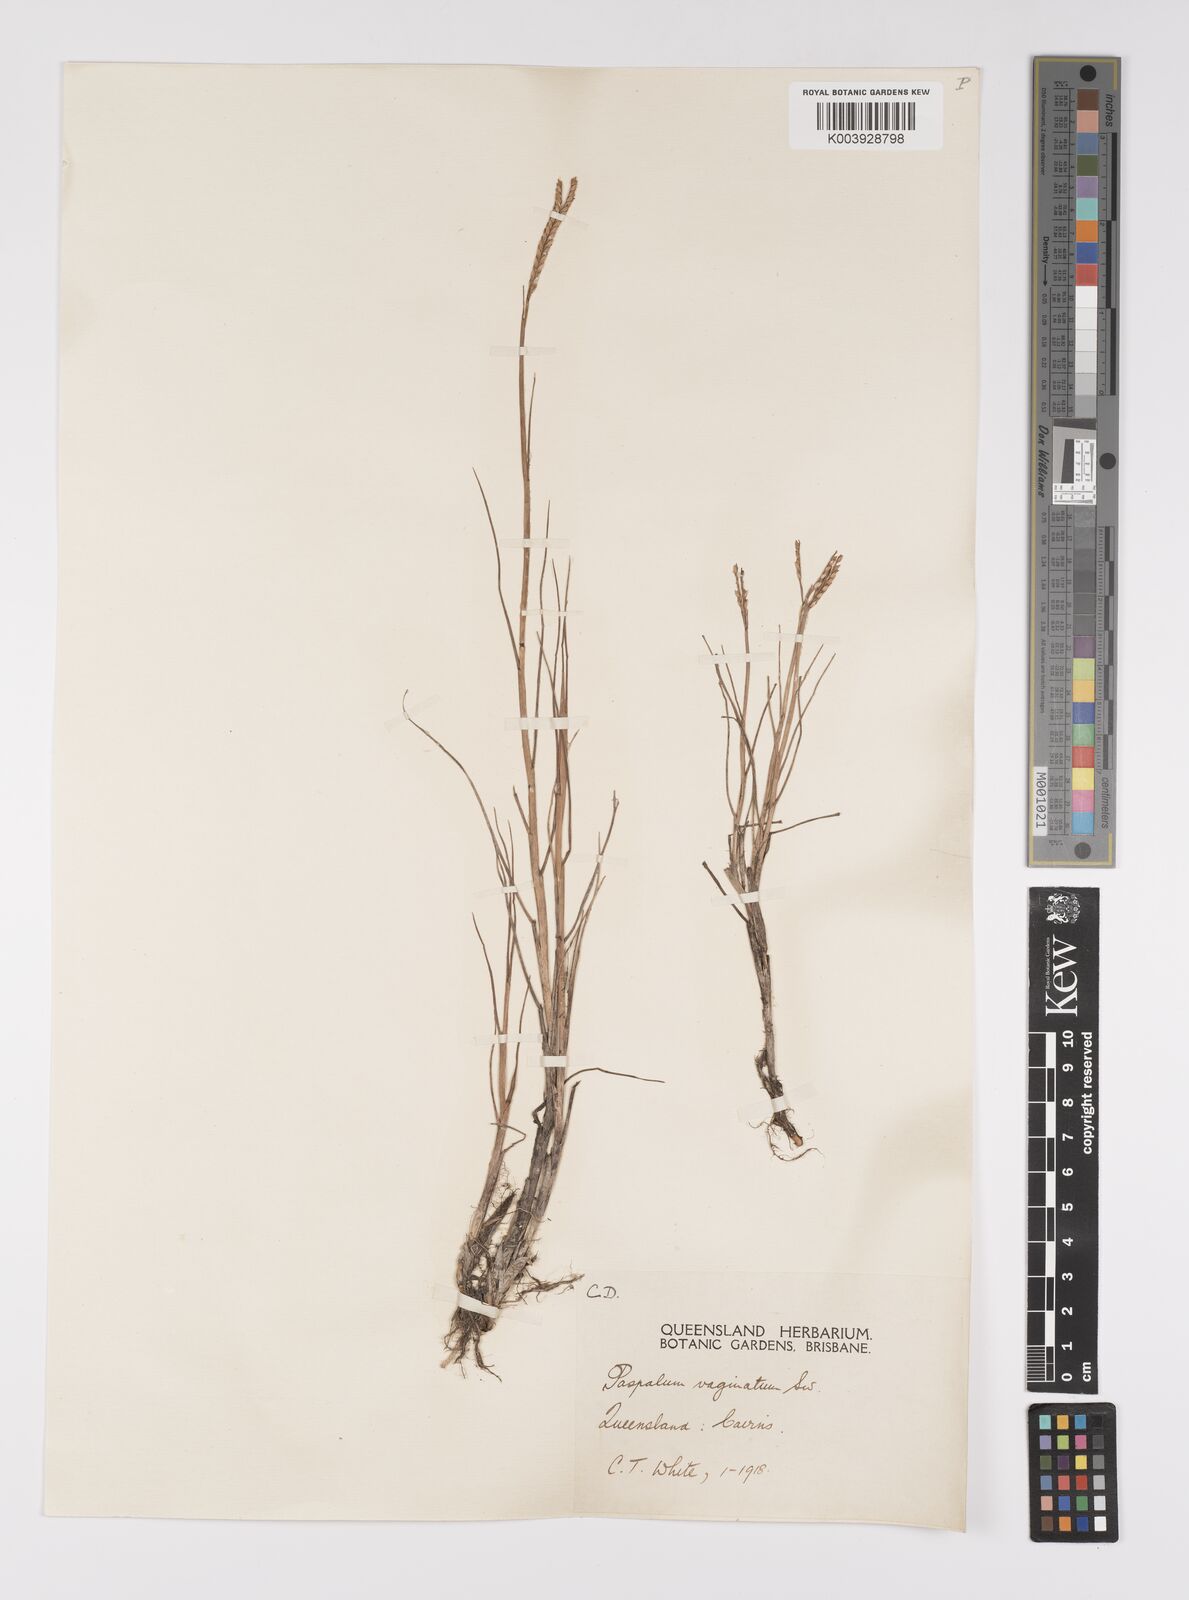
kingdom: Plantae
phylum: Tracheophyta
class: Liliopsida
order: Poales
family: Poaceae
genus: Paspalum
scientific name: Paspalum vaginatum
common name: Seashore paspalum
